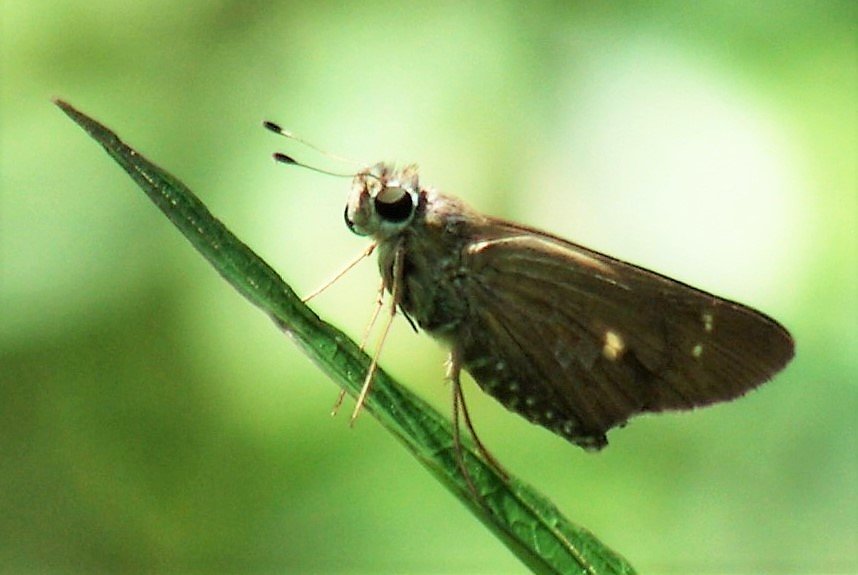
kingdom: Animalia
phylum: Arthropoda
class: Insecta
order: Lepidoptera
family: Hesperiidae
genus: Panoquina
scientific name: Panoquina ocola
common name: Ocola Skipper
